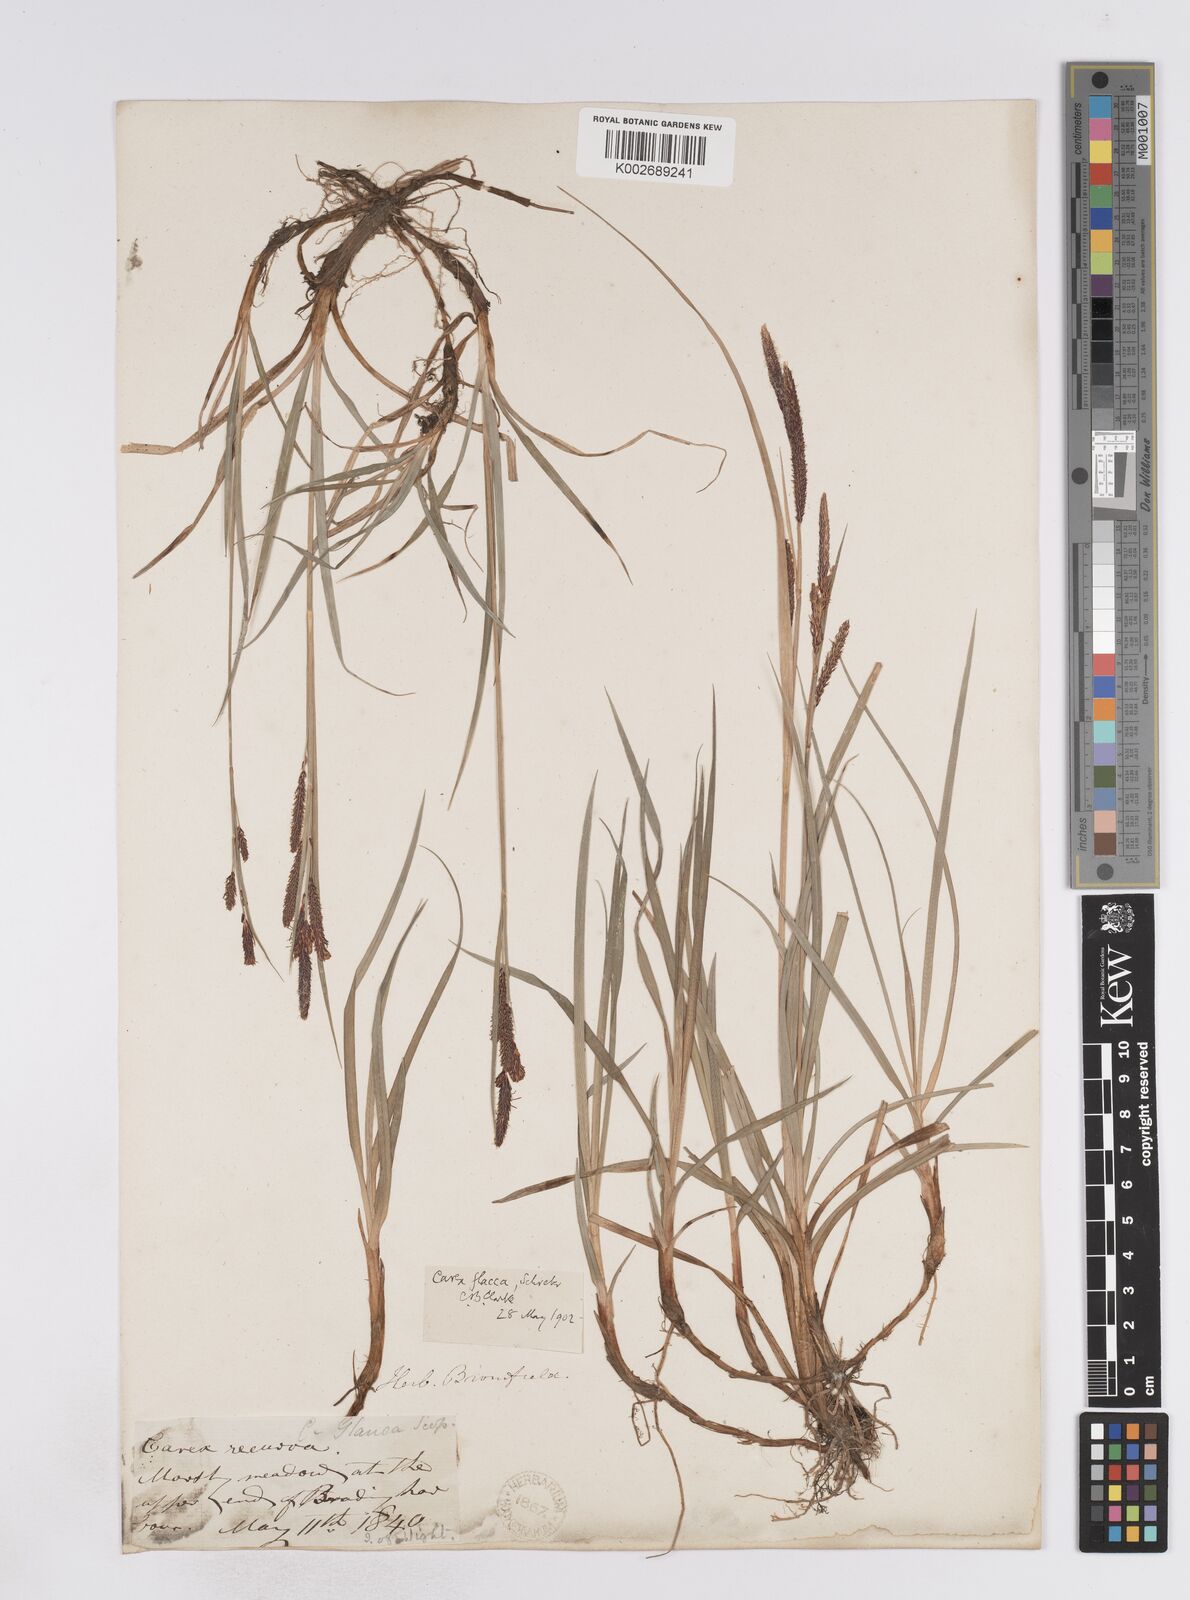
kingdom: Plantae
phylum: Tracheophyta
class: Liliopsida
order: Poales
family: Cyperaceae
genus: Carex
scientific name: Carex flacca
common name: Glaucous sedge
